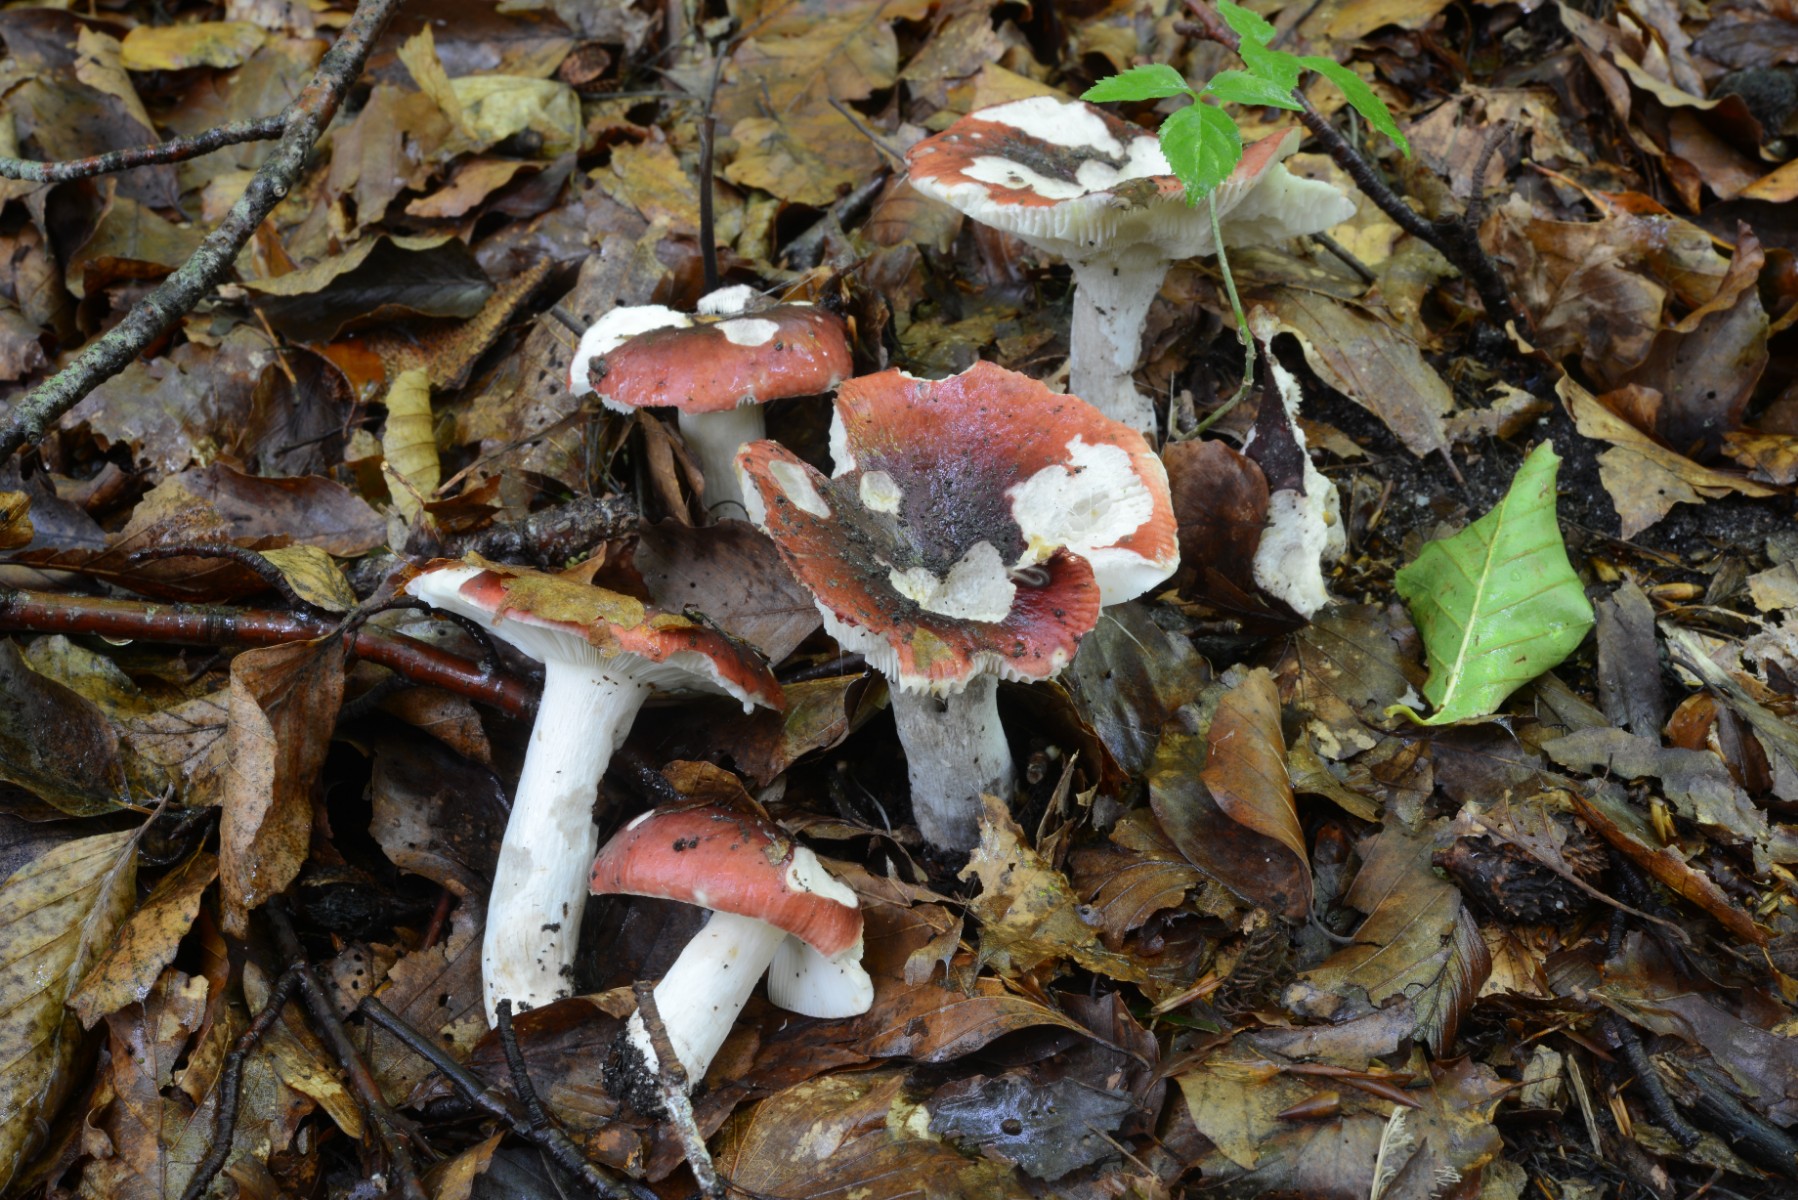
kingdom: Fungi
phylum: Basidiomycota
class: Agaricomycetes
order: Russulales
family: Russulaceae
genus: Russula
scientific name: Russula atropurpurea
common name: purpurbroget skørhat
